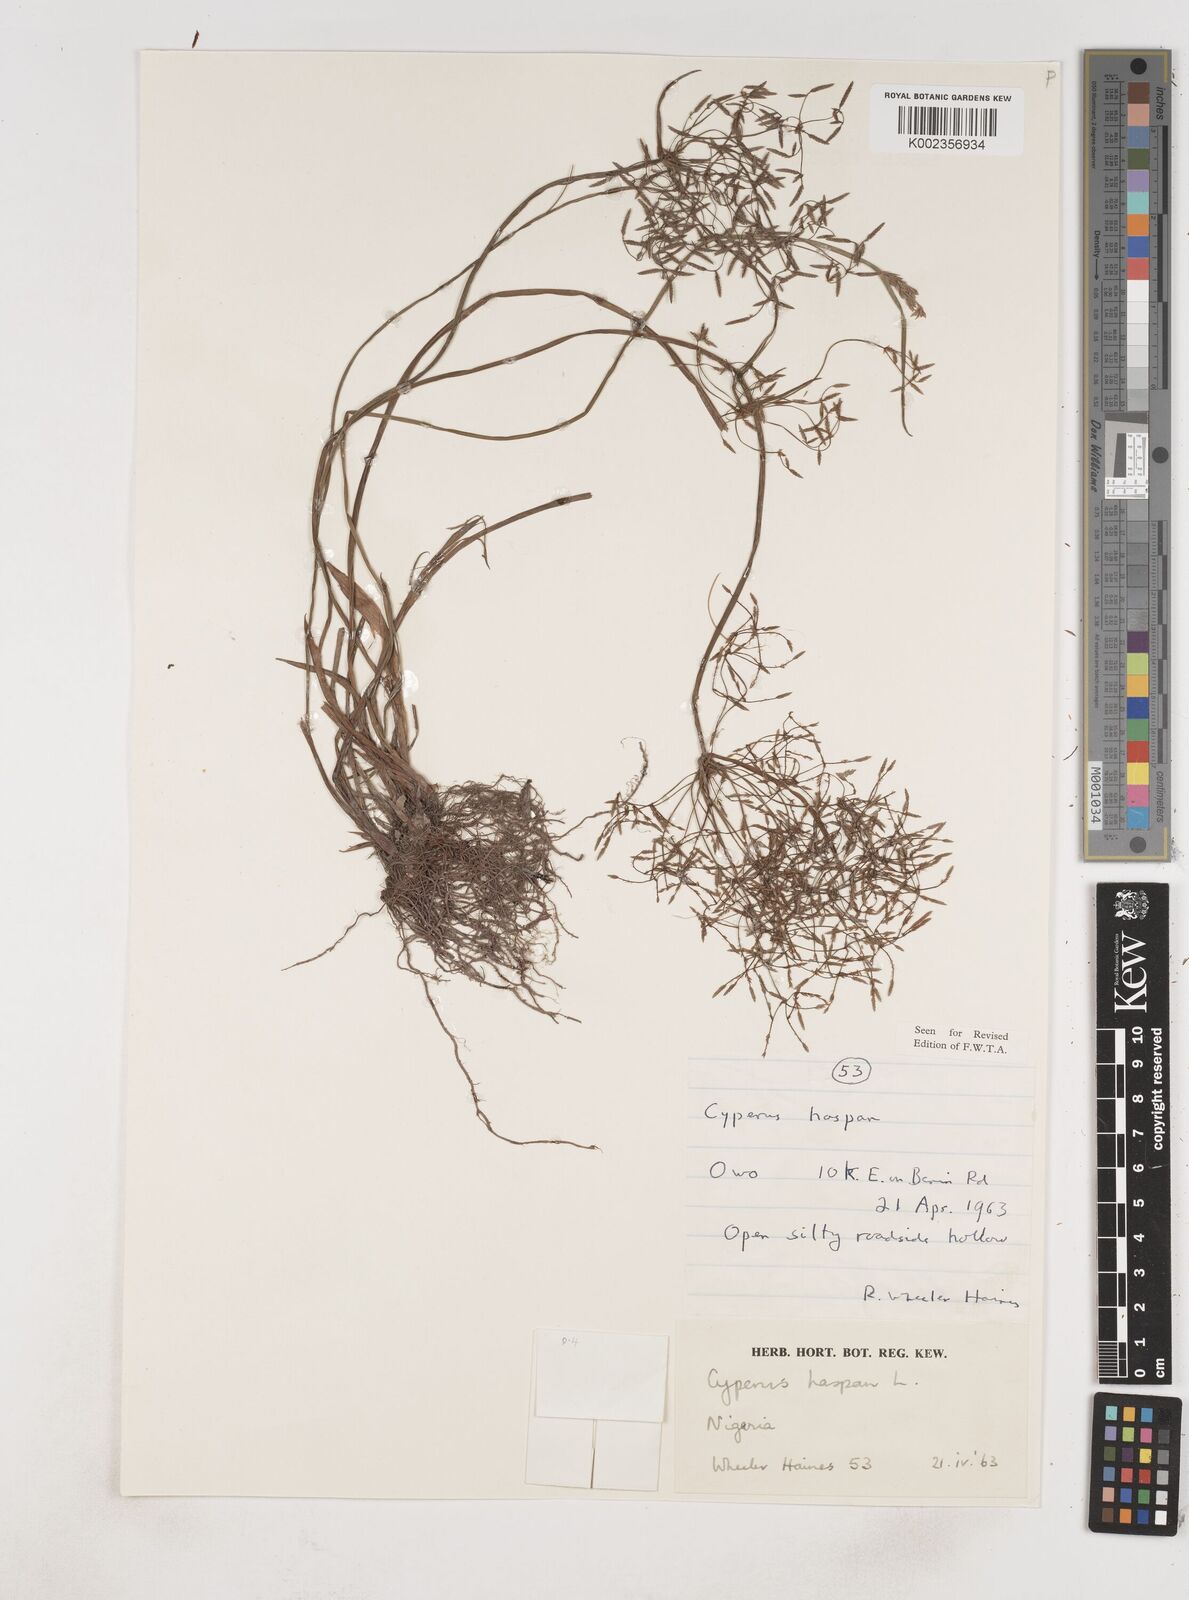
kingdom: Plantae
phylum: Tracheophyta
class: Liliopsida
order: Poales
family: Cyperaceae
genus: Cyperus
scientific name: Cyperus haspan
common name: Haspan flatsedge
